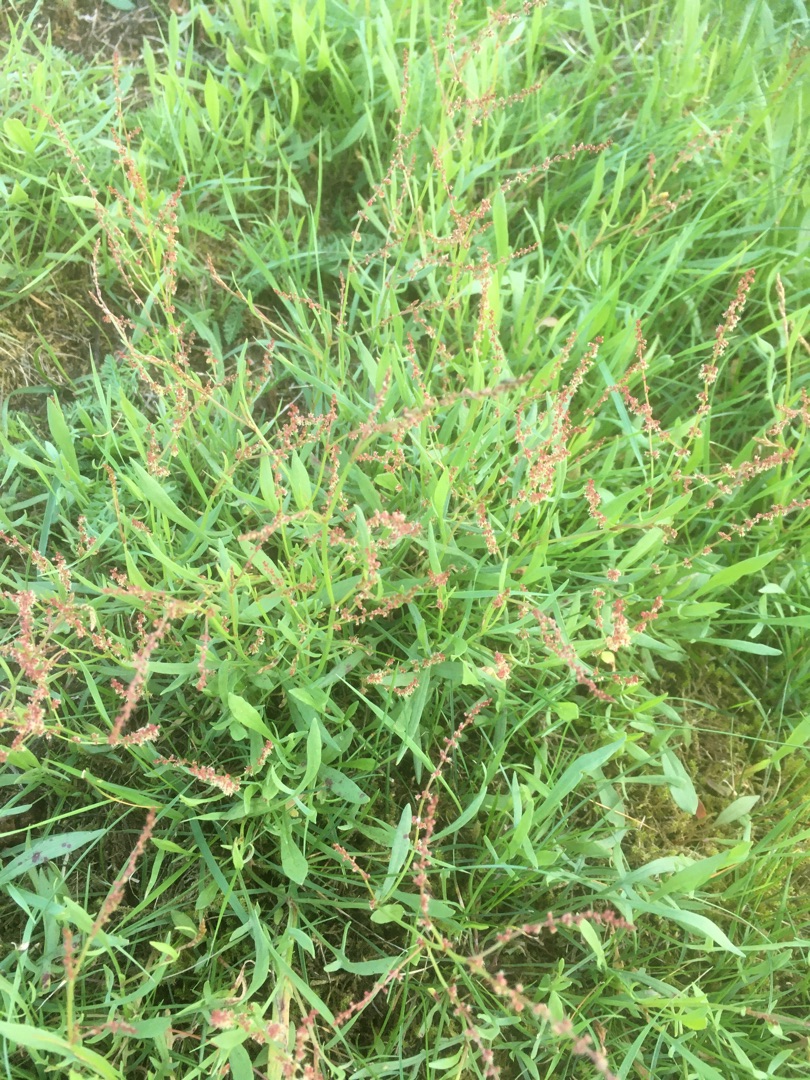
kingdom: Plantae
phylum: Tracheophyta
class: Magnoliopsida
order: Caryophyllales
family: Polygonaceae
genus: Rumex
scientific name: Rumex acetosella
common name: Rødknæ
